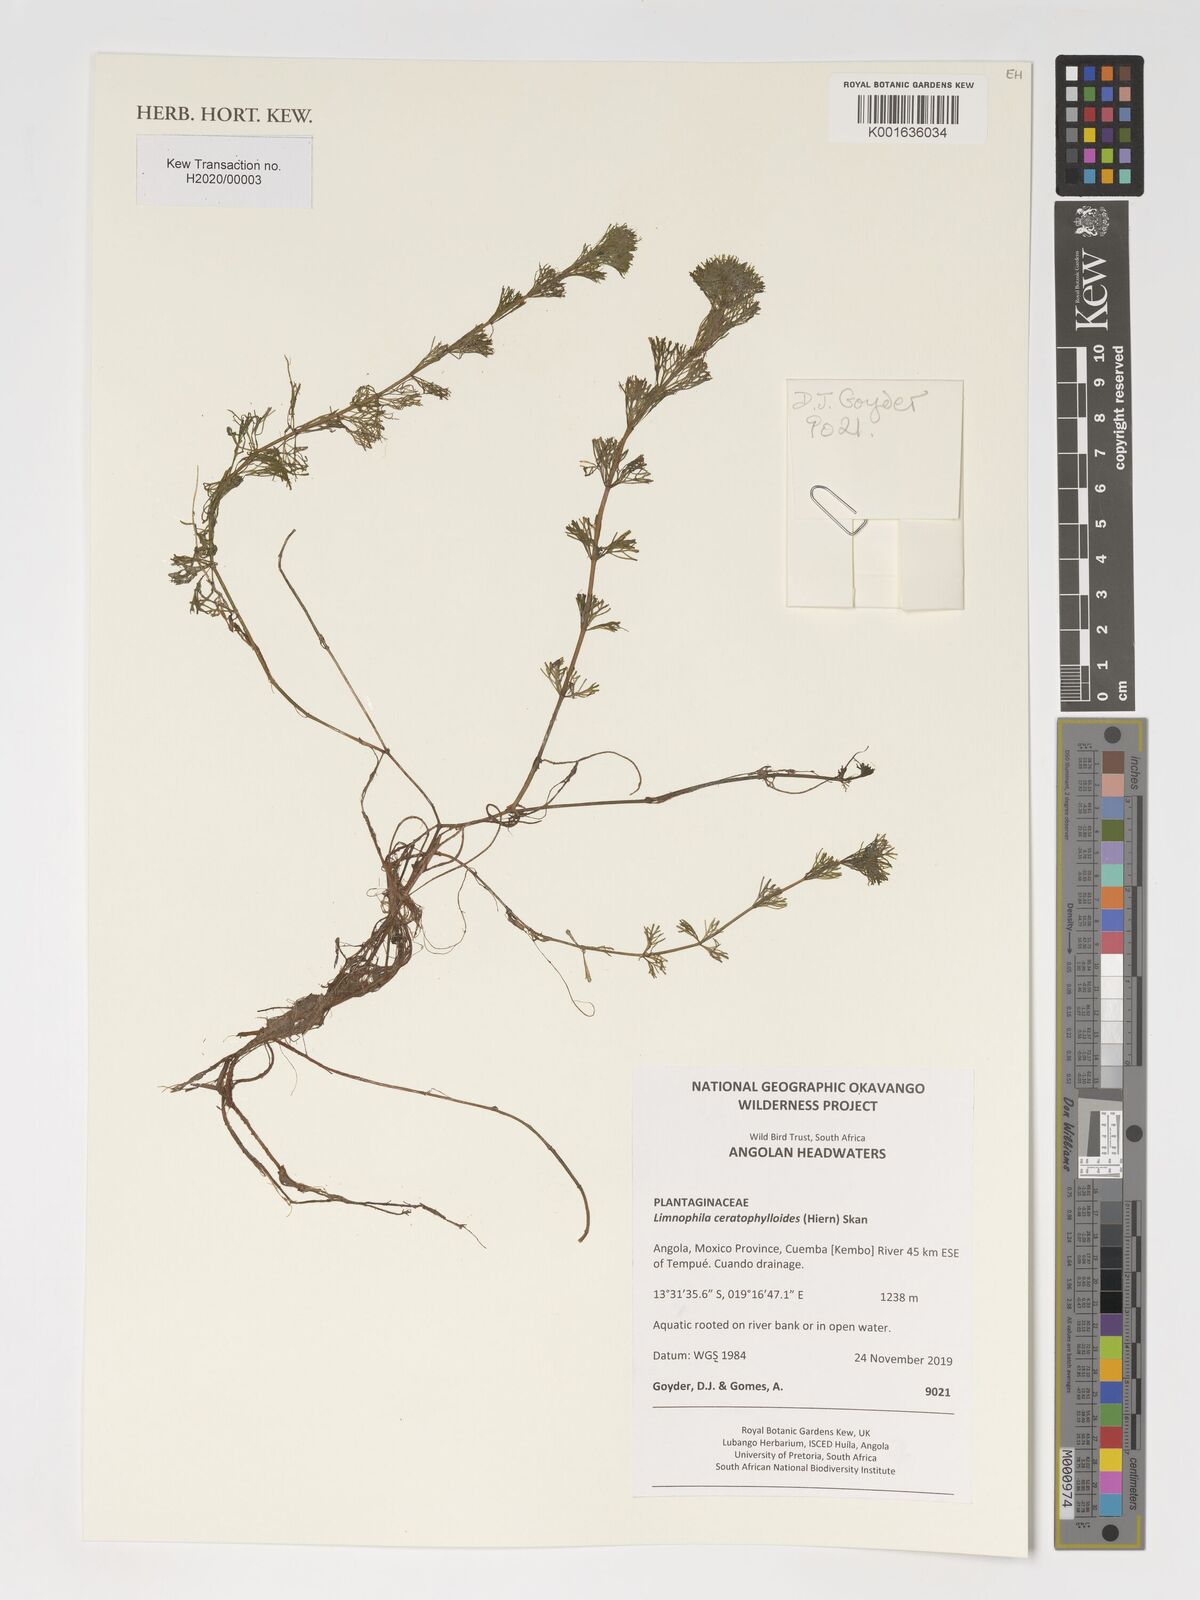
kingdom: Plantae
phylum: Tracheophyta
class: Magnoliopsida
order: Lamiales
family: Plantaginaceae
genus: Limnophila
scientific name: Limnophila ceratophylloides
